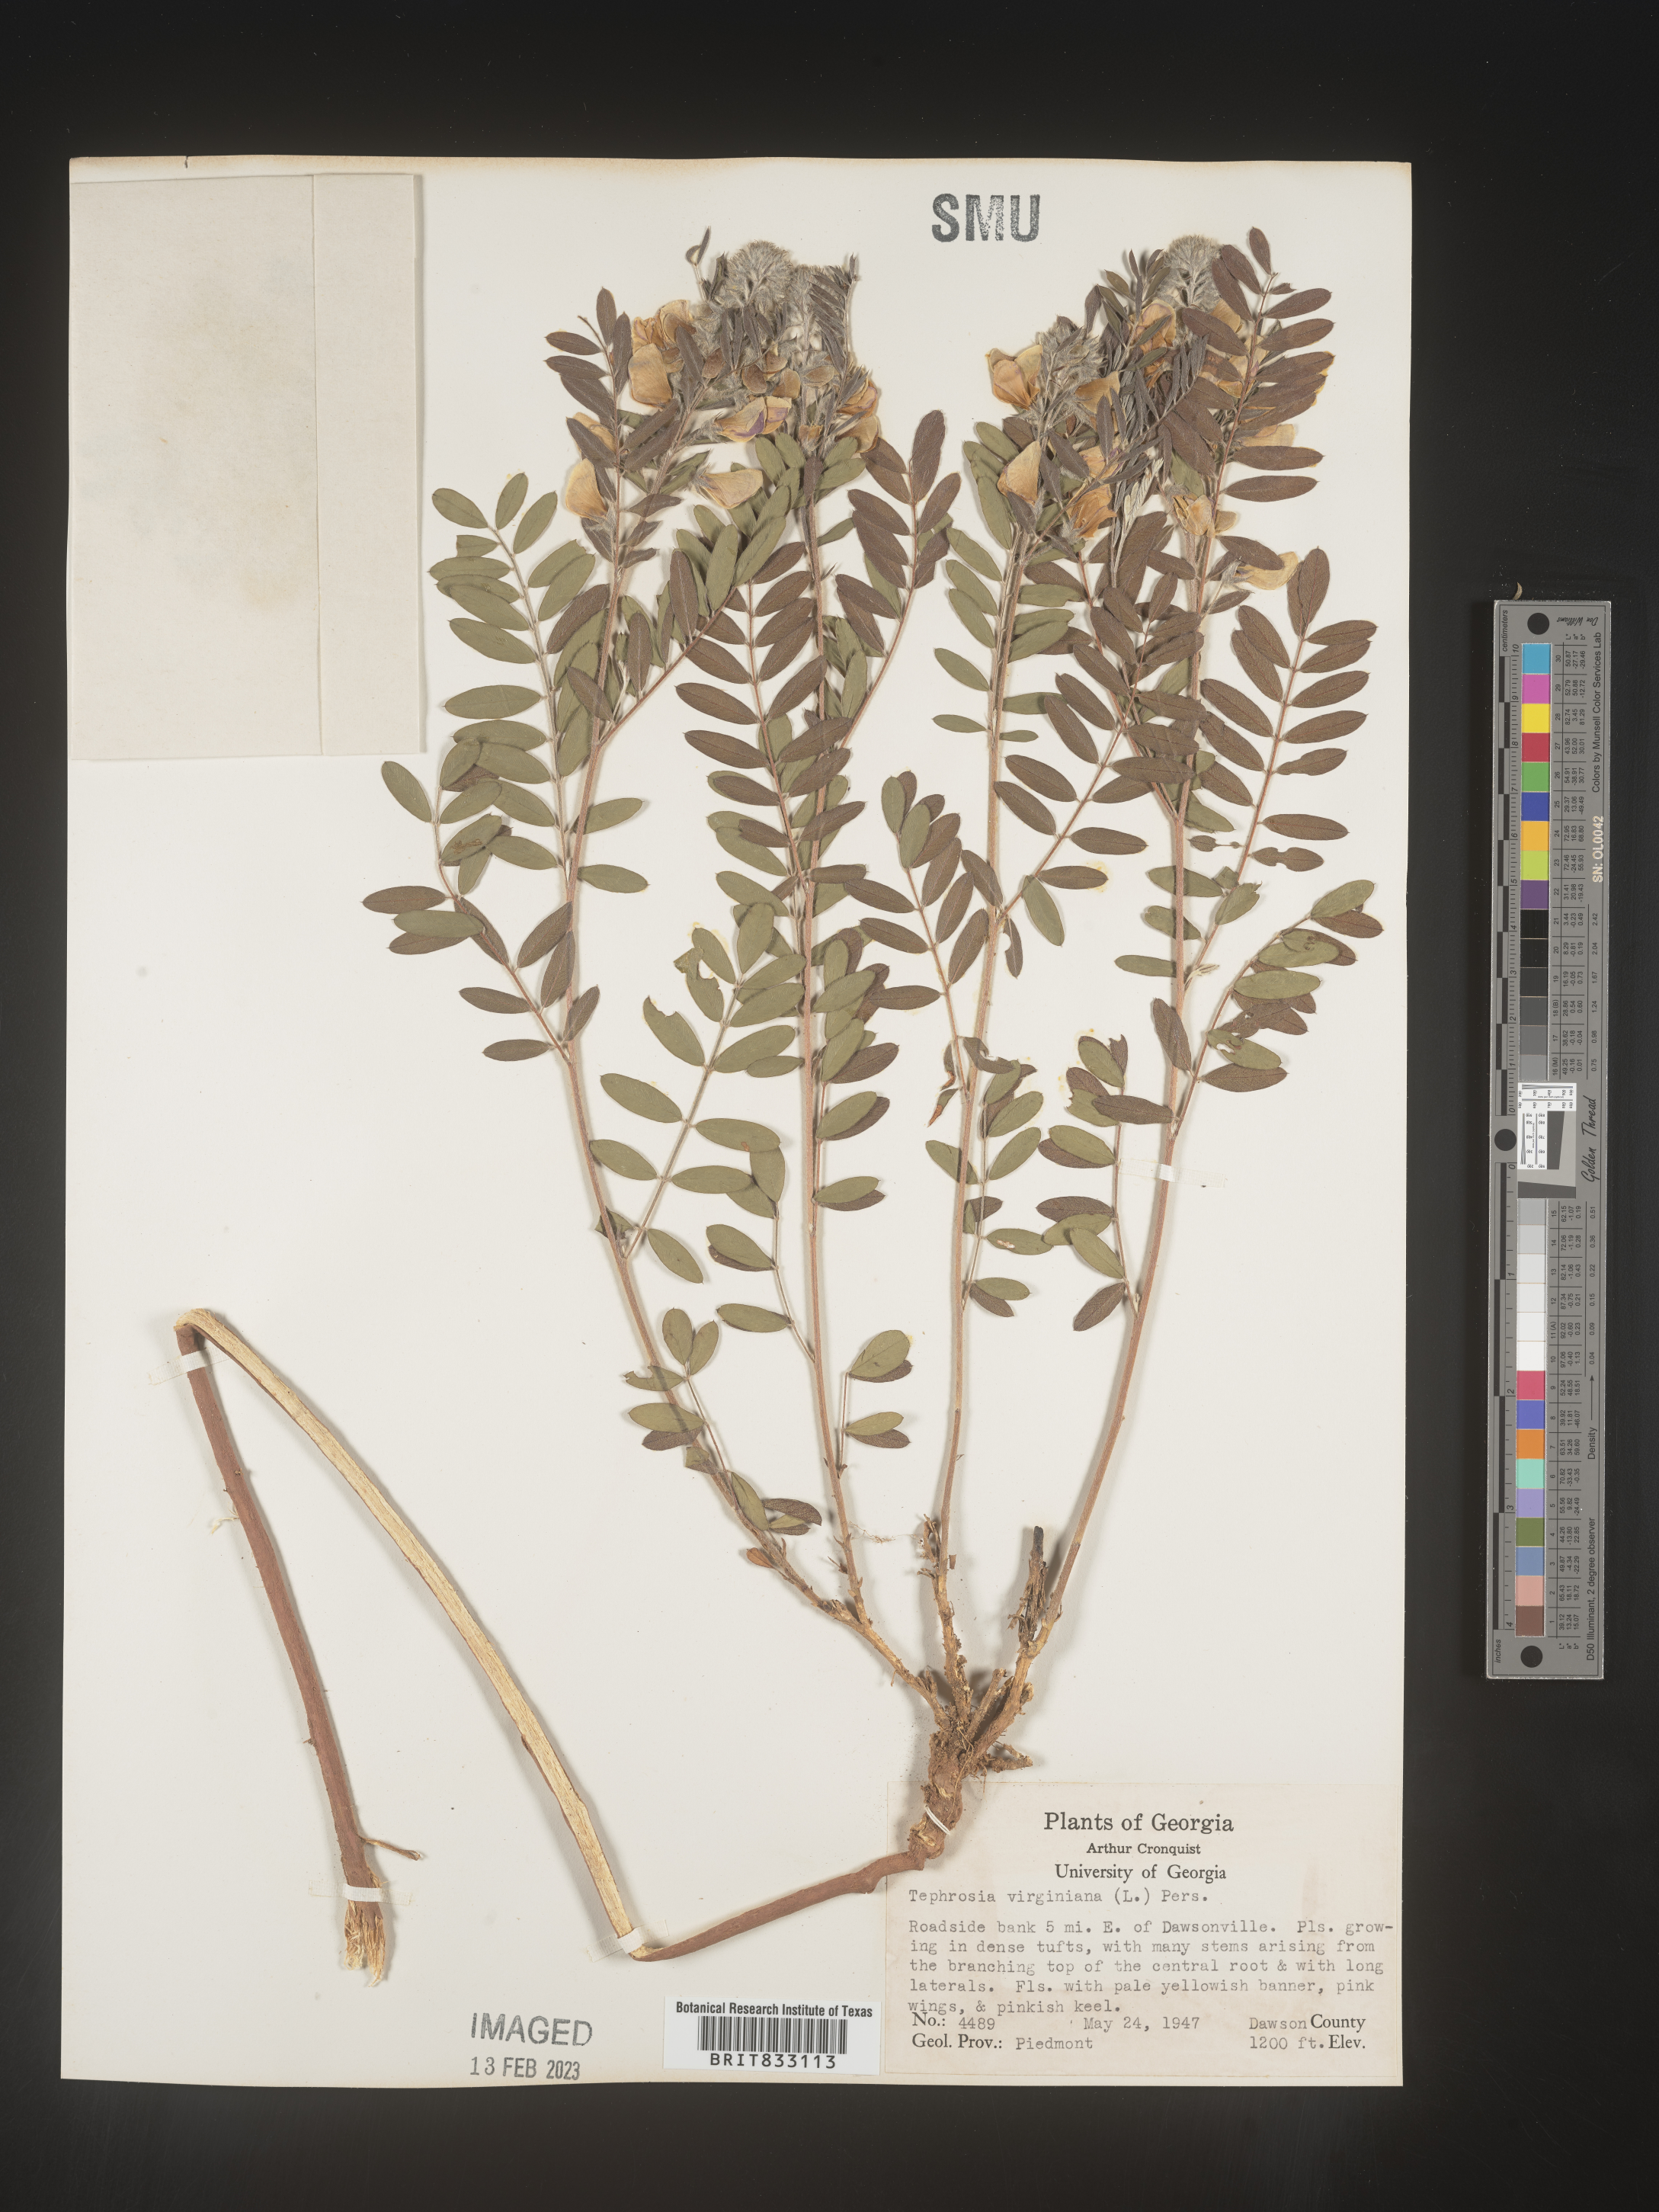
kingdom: Plantae
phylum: Tracheophyta
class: Magnoliopsida
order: Fabales
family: Fabaceae
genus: Tephrosia
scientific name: Tephrosia virginiana
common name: Rabbit-pea
